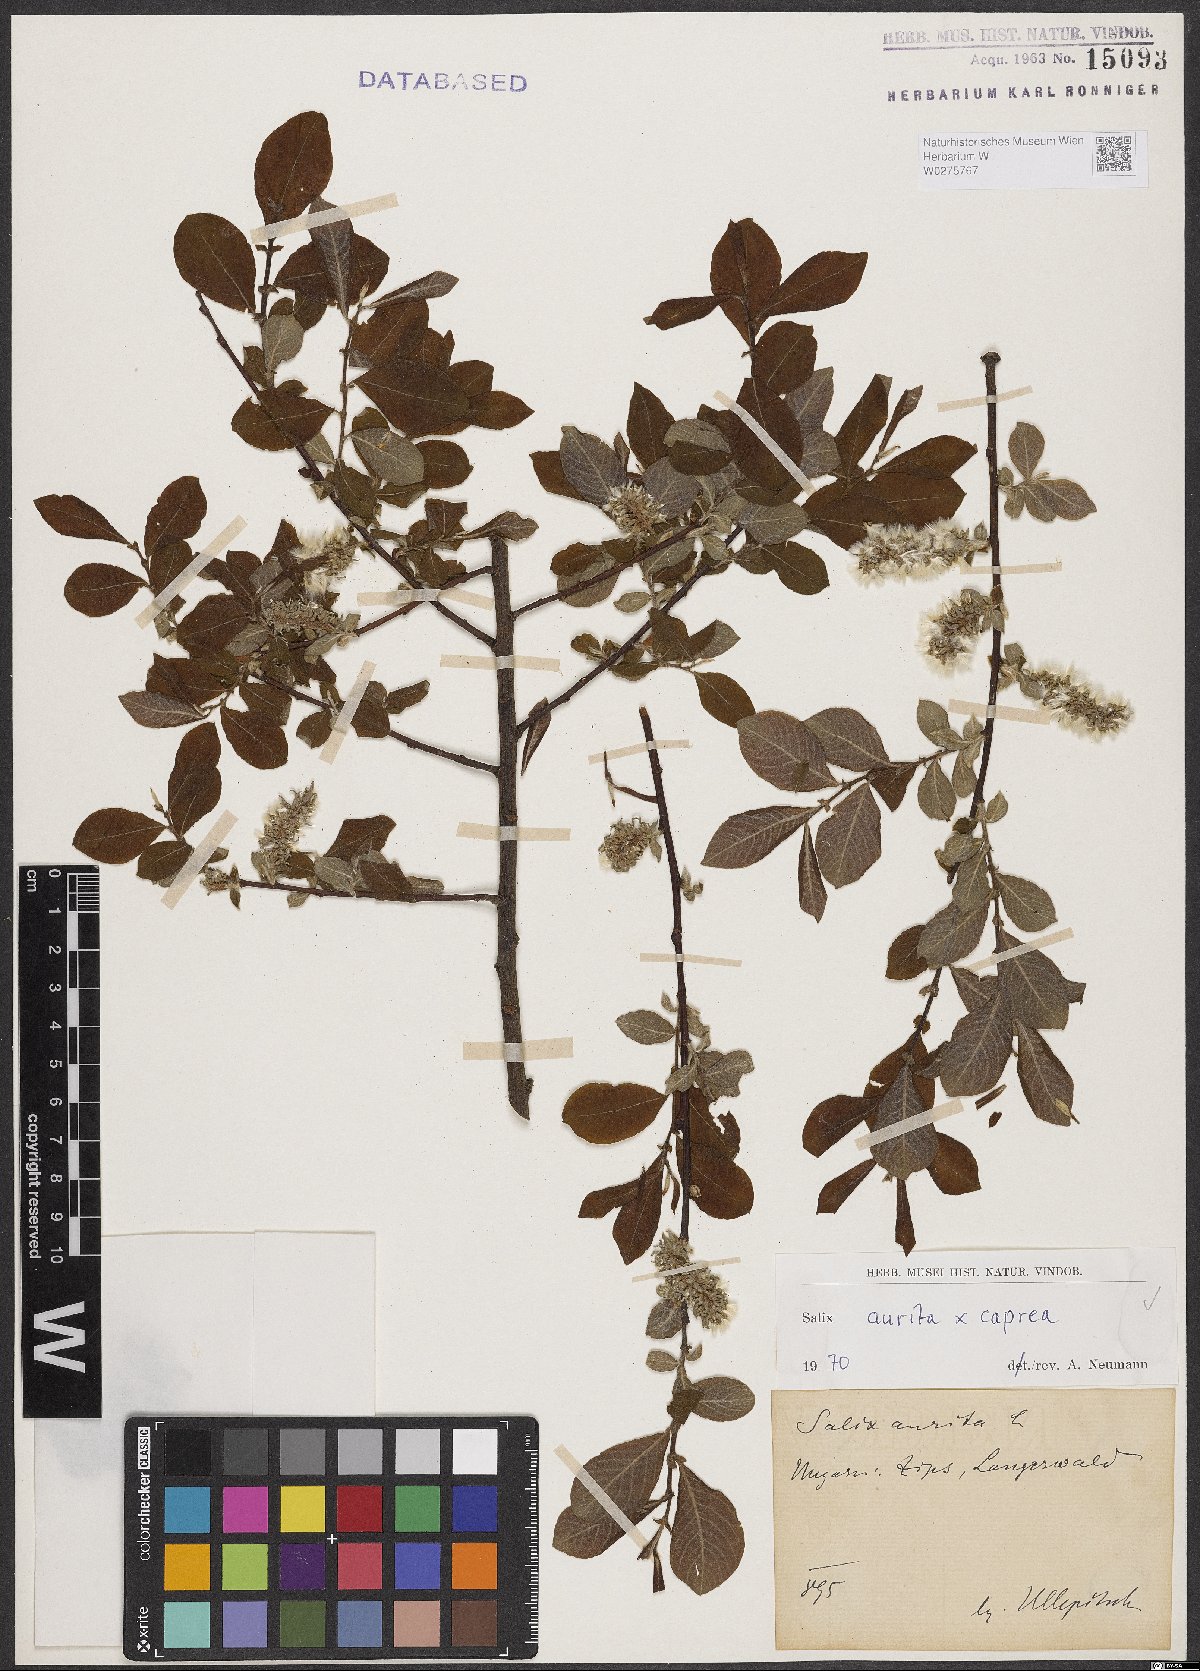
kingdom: Plantae
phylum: Tracheophyta
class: Magnoliopsida
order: Malpighiales
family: Salicaceae
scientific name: Salicaceae
